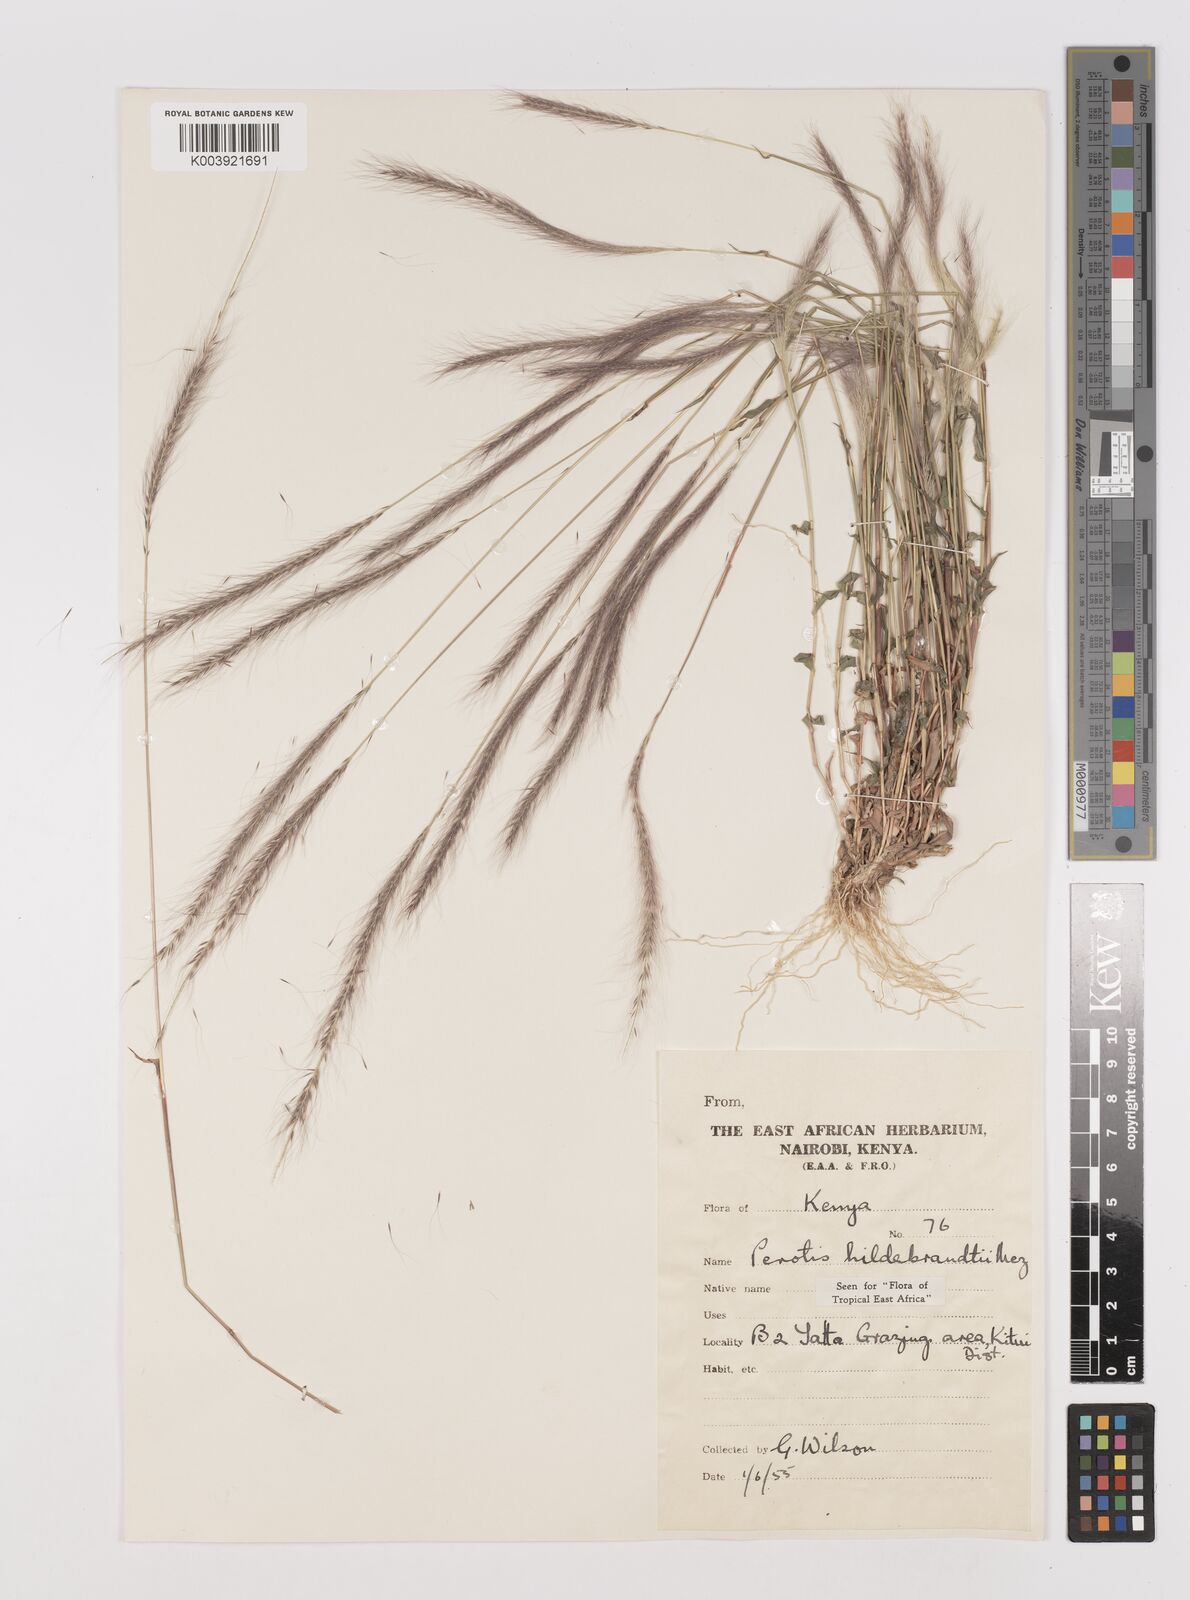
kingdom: Plantae
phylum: Tracheophyta
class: Liliopsida
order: Poales
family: Poaceae
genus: Perotis
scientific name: Perotis hildebrandtii
